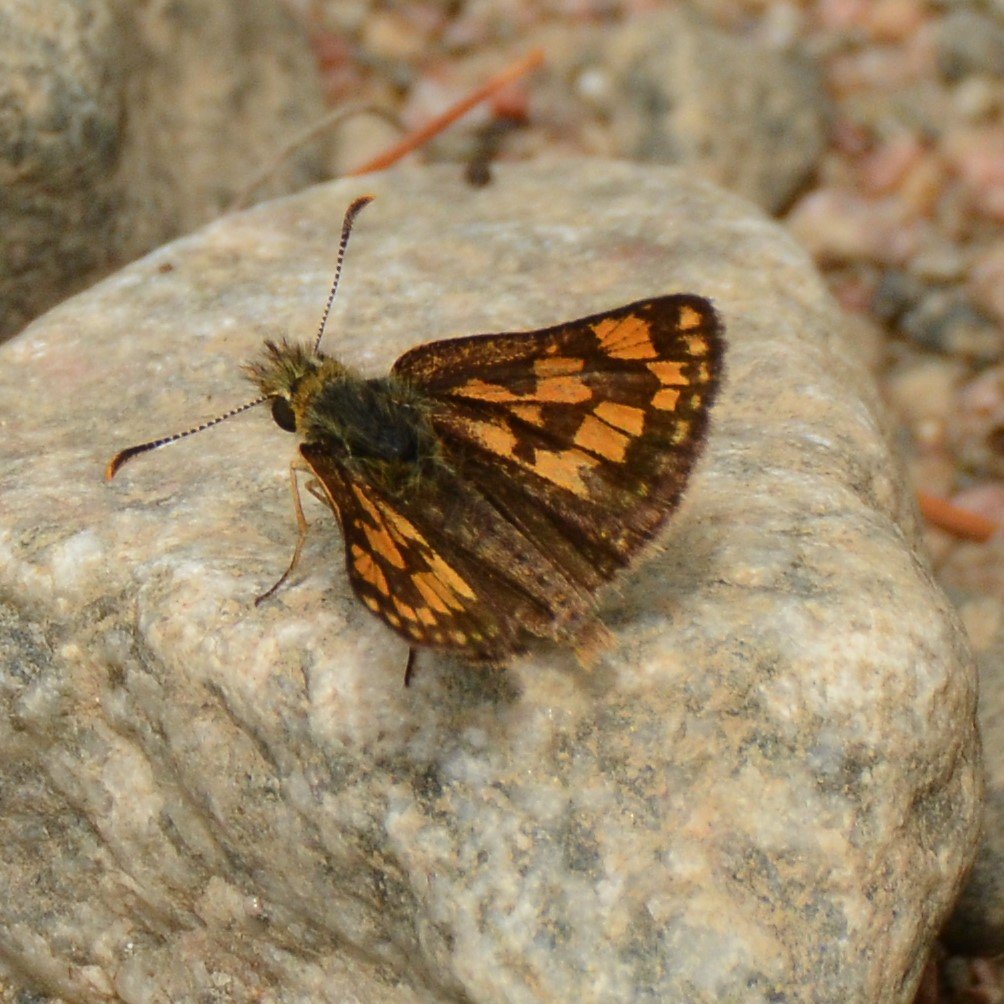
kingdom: Animalia
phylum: Arthropoda
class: Insecta
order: Lepidoptera
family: Hesperiidae
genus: Carterocephalus
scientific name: Carterocephalus palaemon
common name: Chequered Skipper
